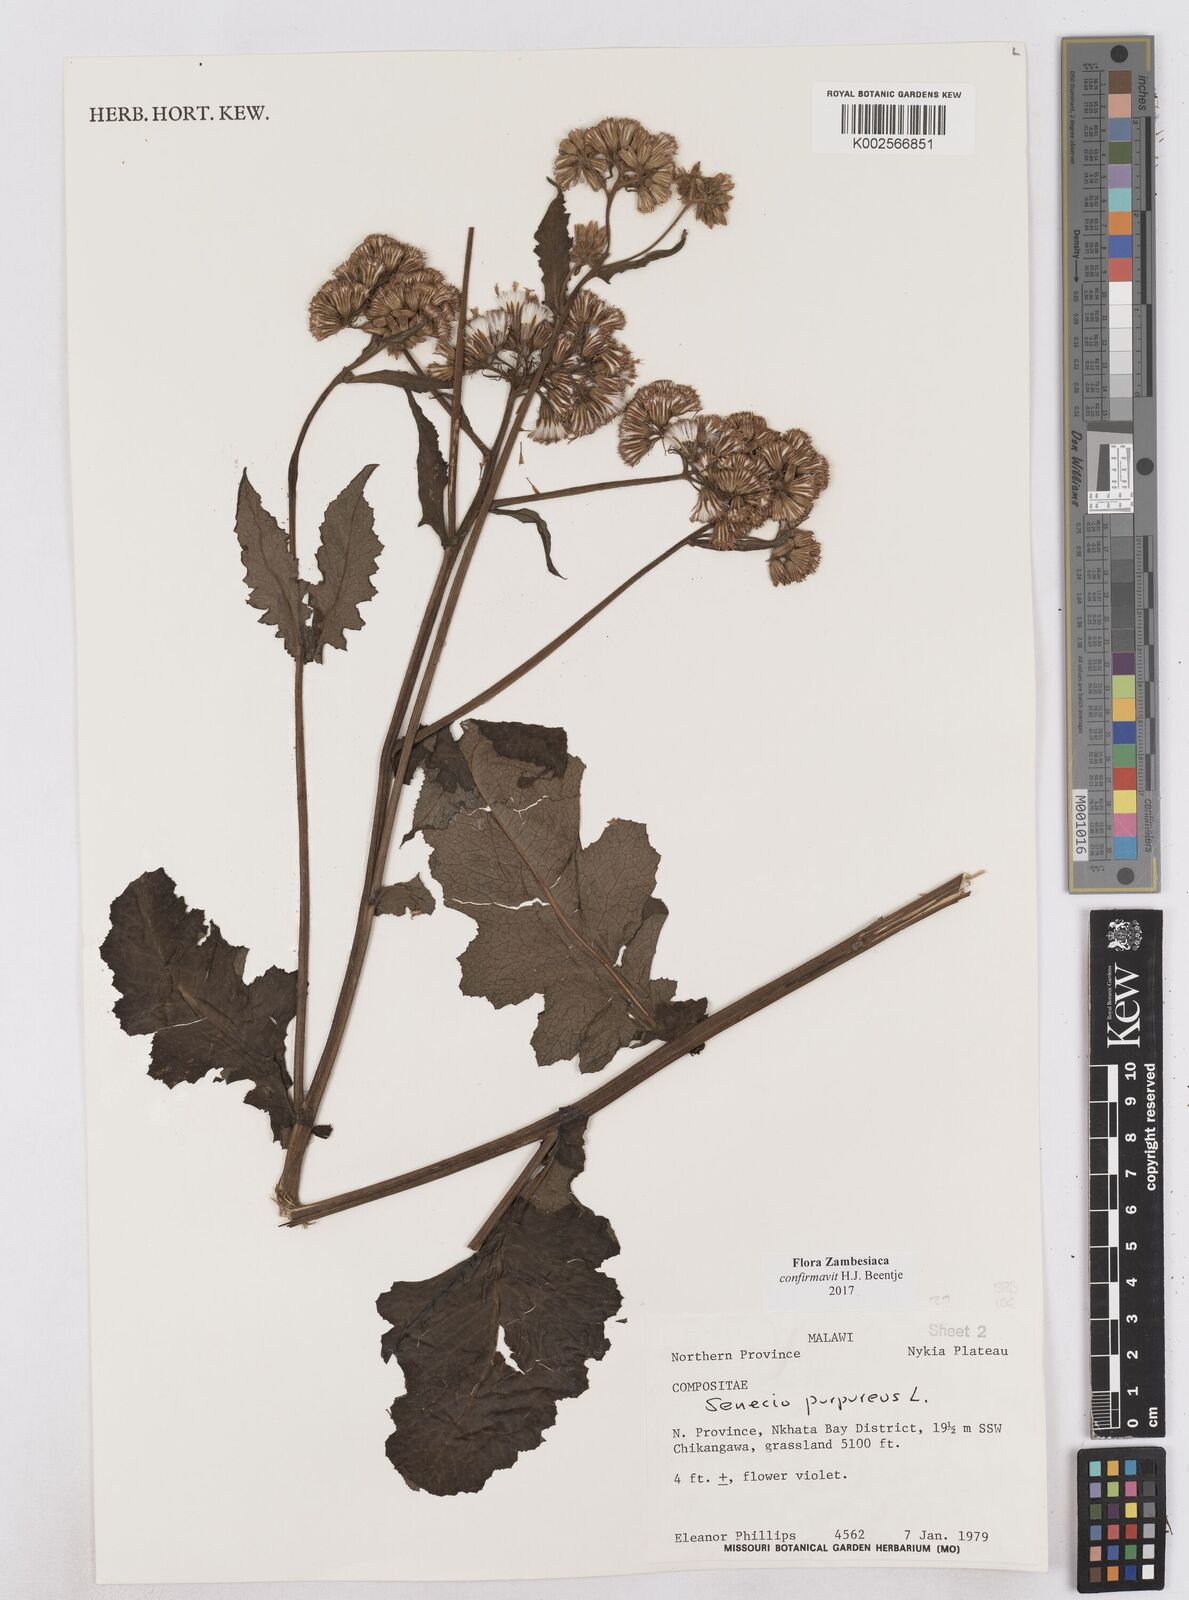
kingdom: Plantae
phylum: Tracheophyta
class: Magnoliopsida
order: Asterales
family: Asteraceae
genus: Senecio
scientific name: Senecio purpureus
